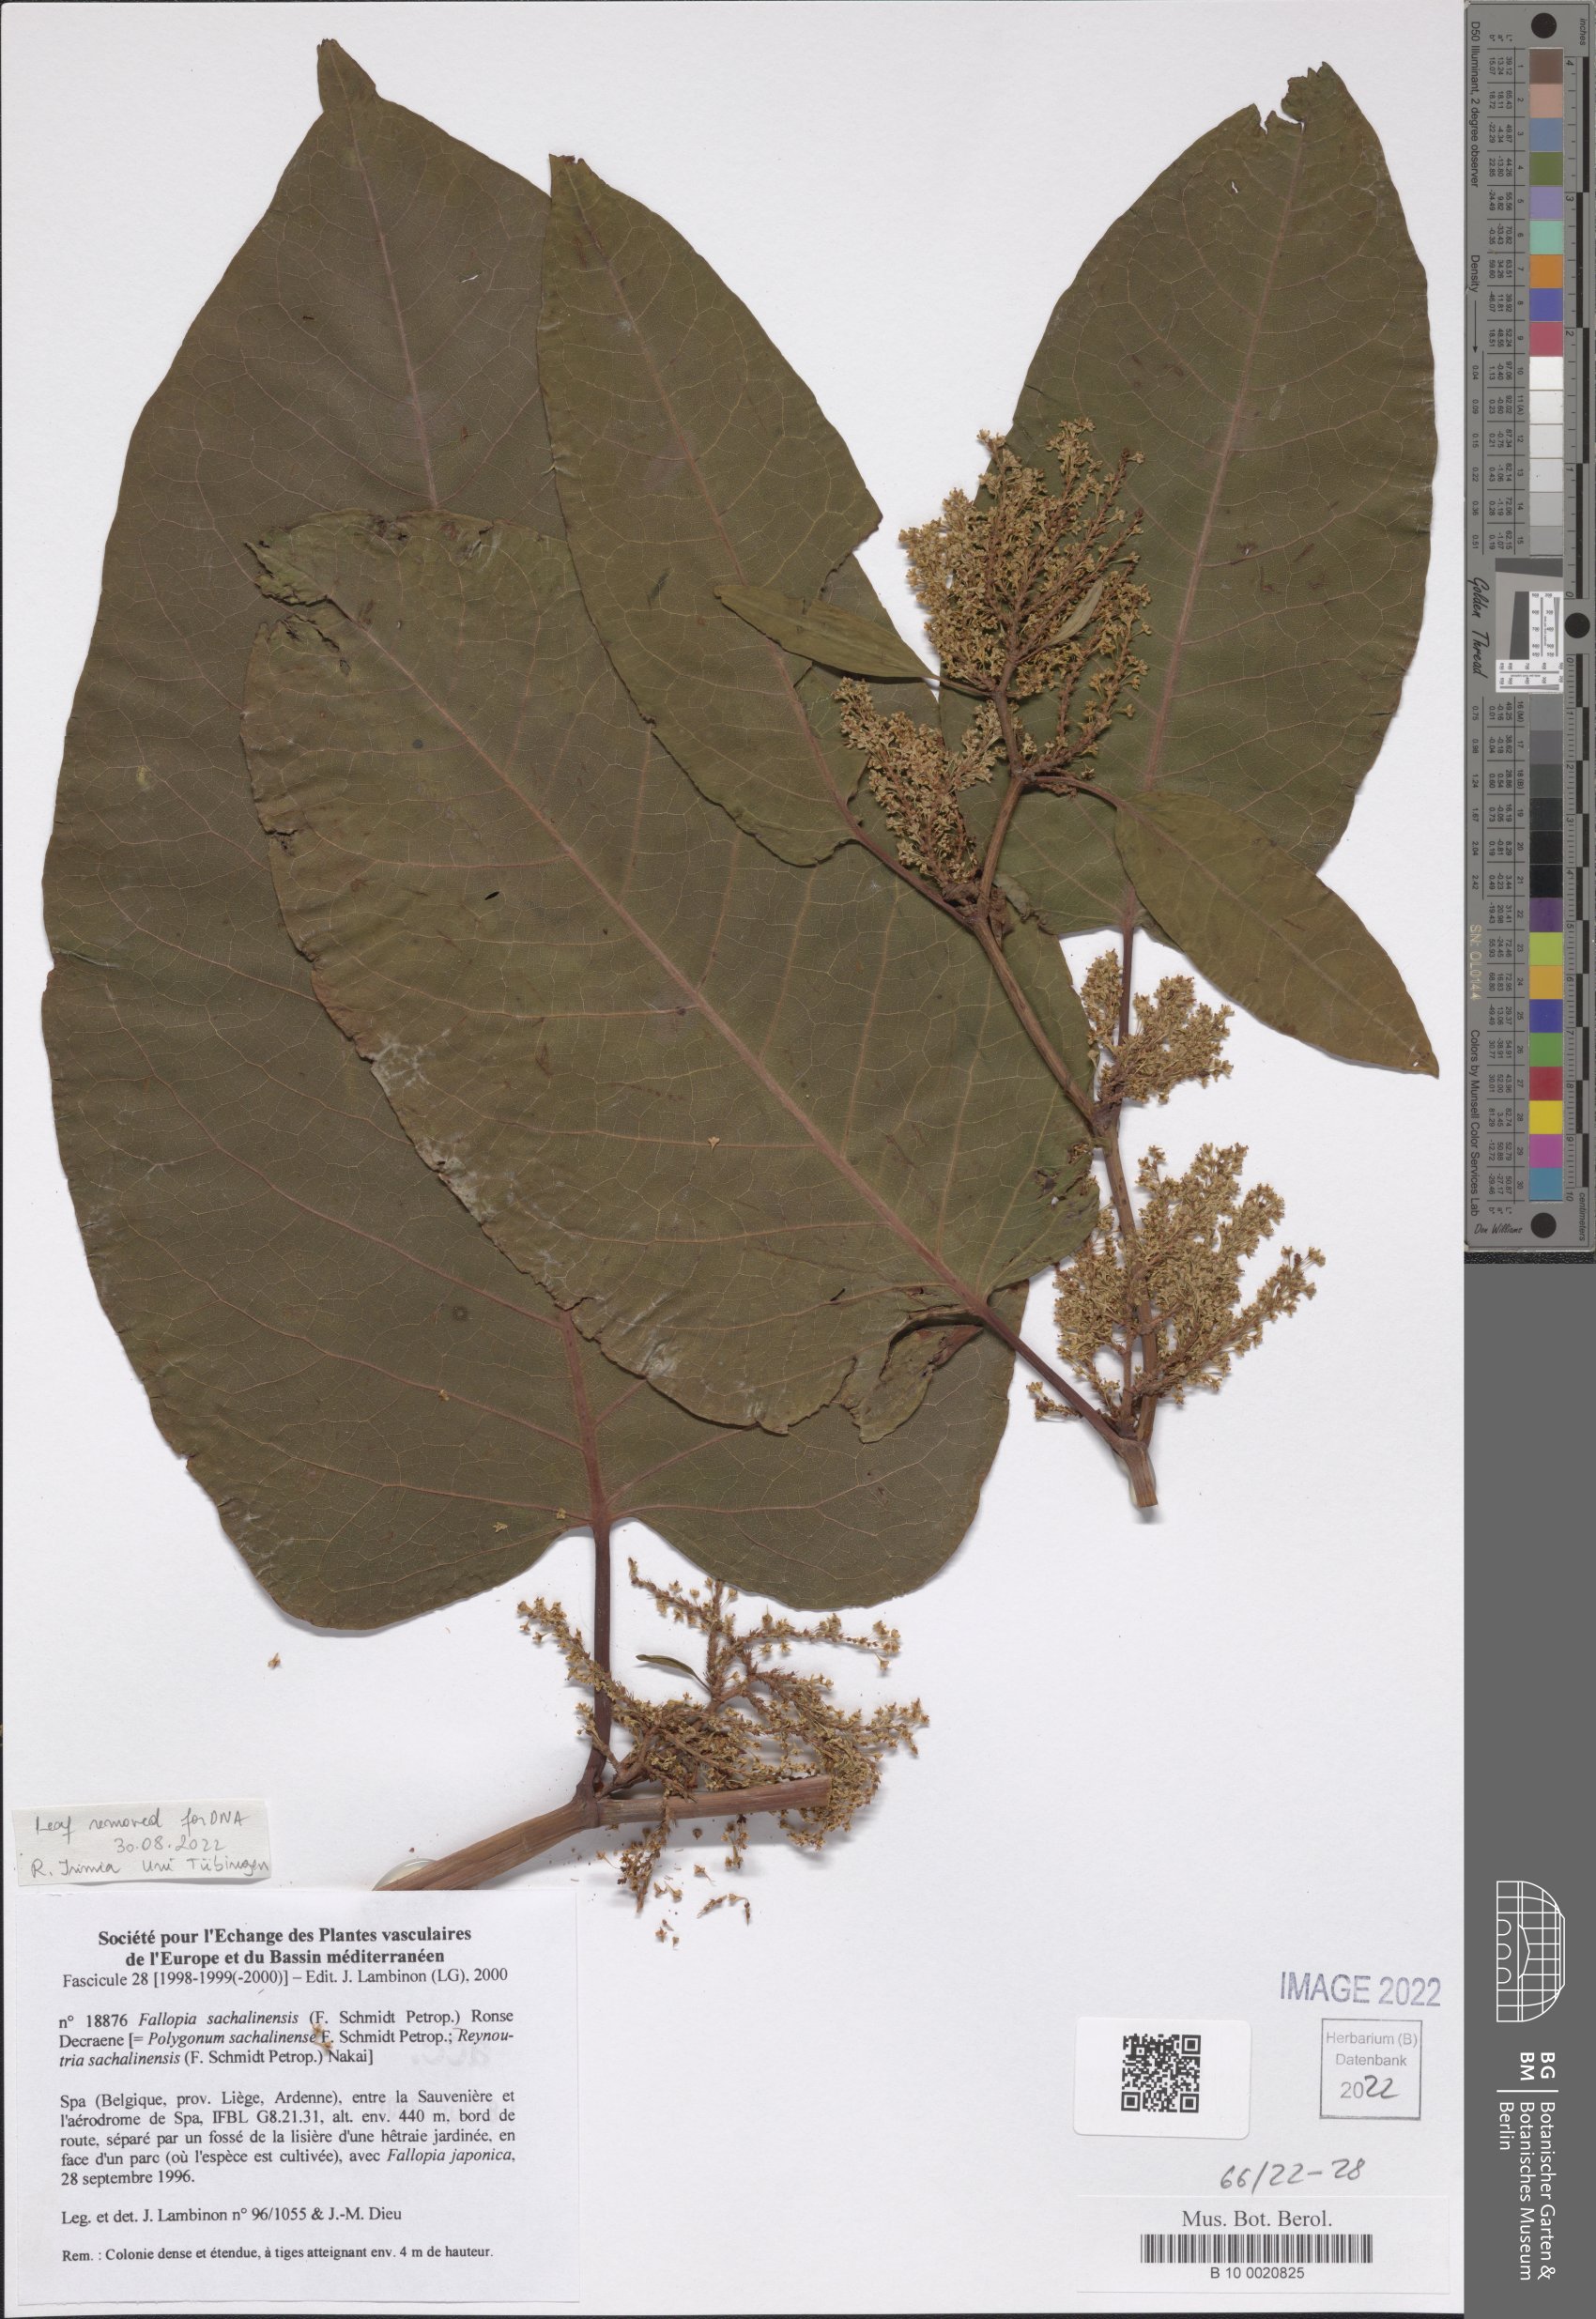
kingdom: Plantae
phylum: Tracheophyta
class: Magnoliopsida
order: Caryophyllales
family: Polygonaceae
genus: Reynoutria
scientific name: Reynoutria sachalinensis
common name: Giant knotweed
